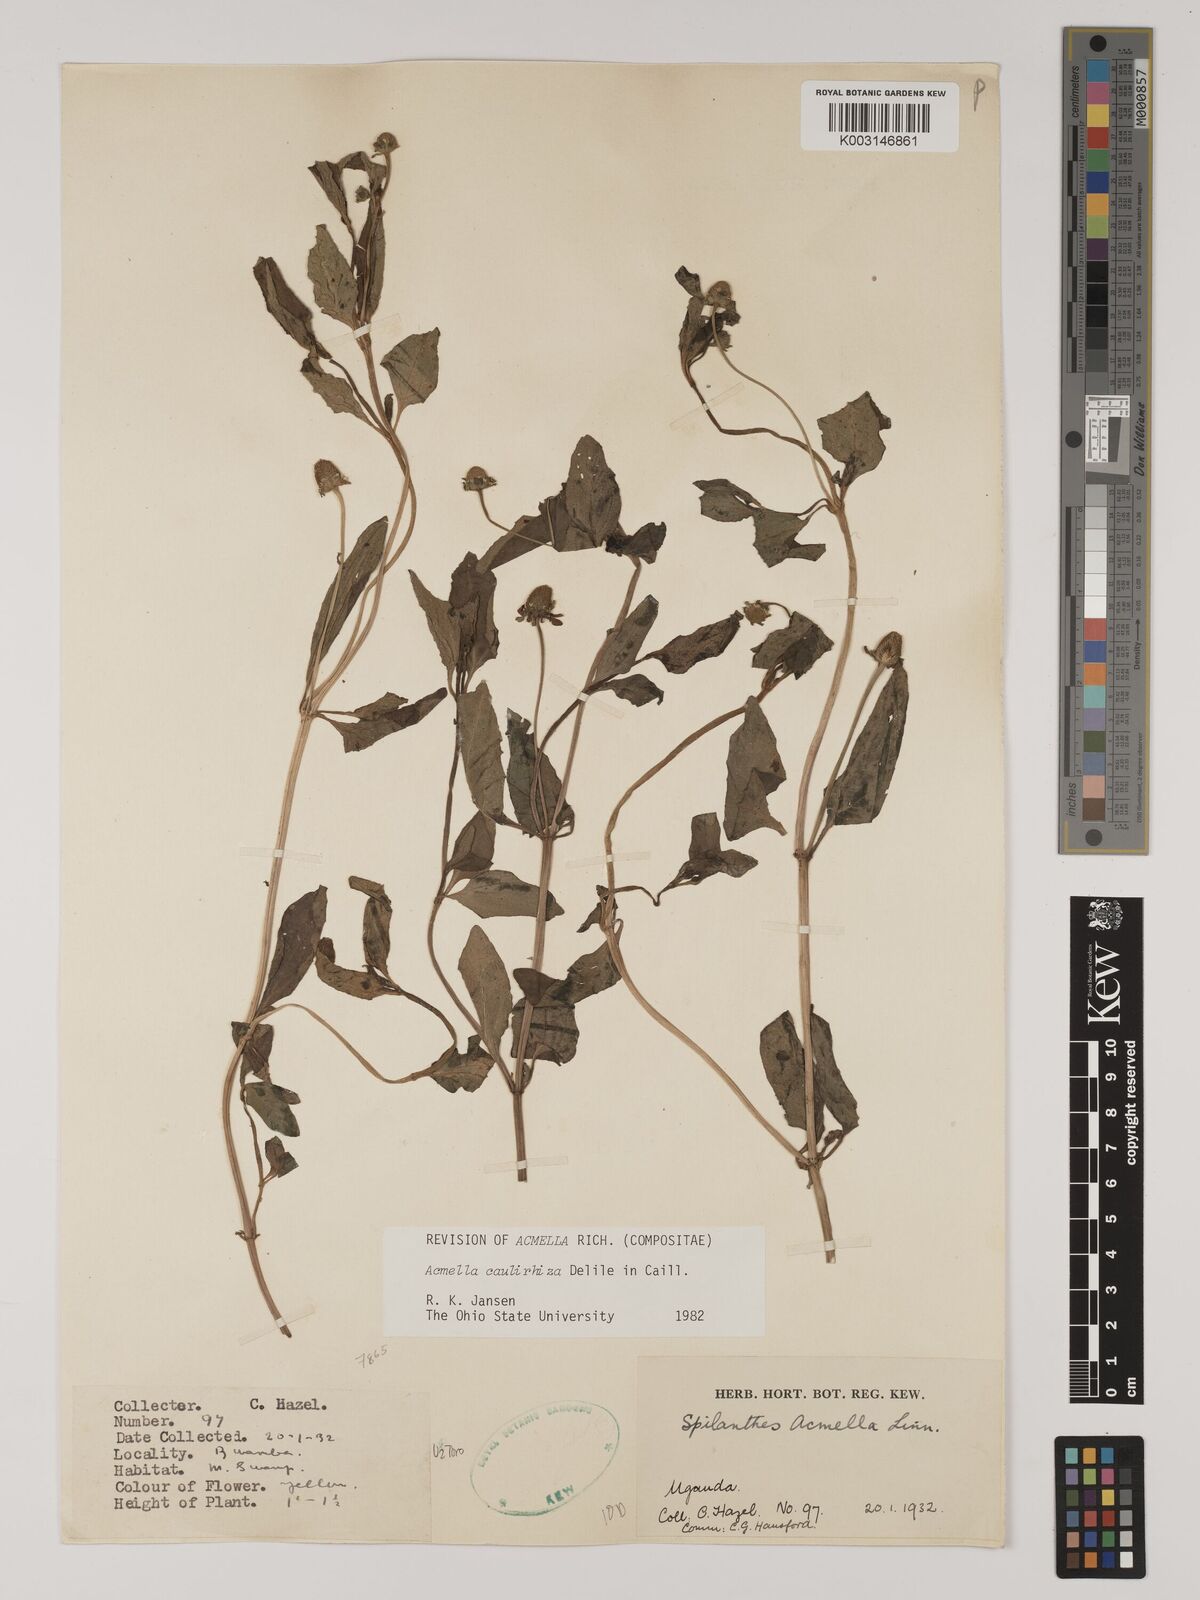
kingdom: Plantae
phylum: Tracheophyta
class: Magnoliopsida
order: Asterales
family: Asteraceae
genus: Acmella
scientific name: Acmella caulirhiza
